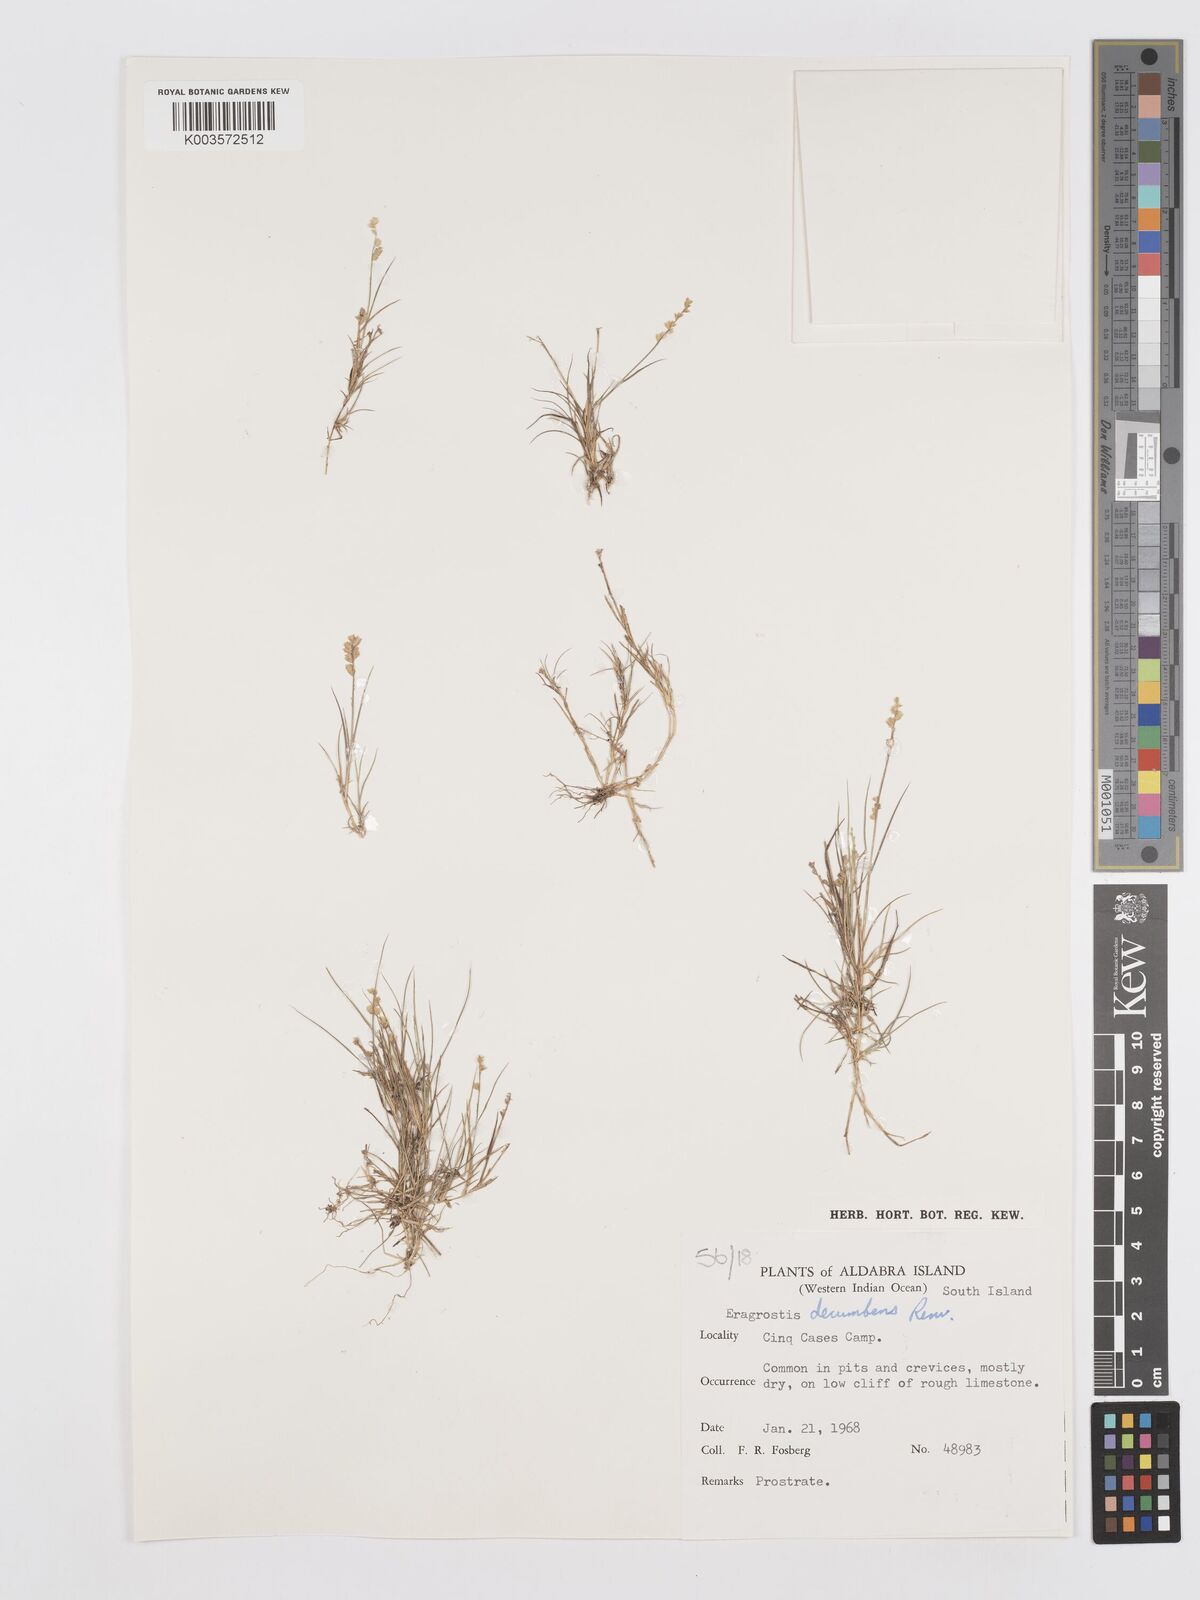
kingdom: Plantae
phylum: Tracheophyta
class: Liliopsida
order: Poales
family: Poaceae
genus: Eragrostis
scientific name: Eragrostis decumbens
